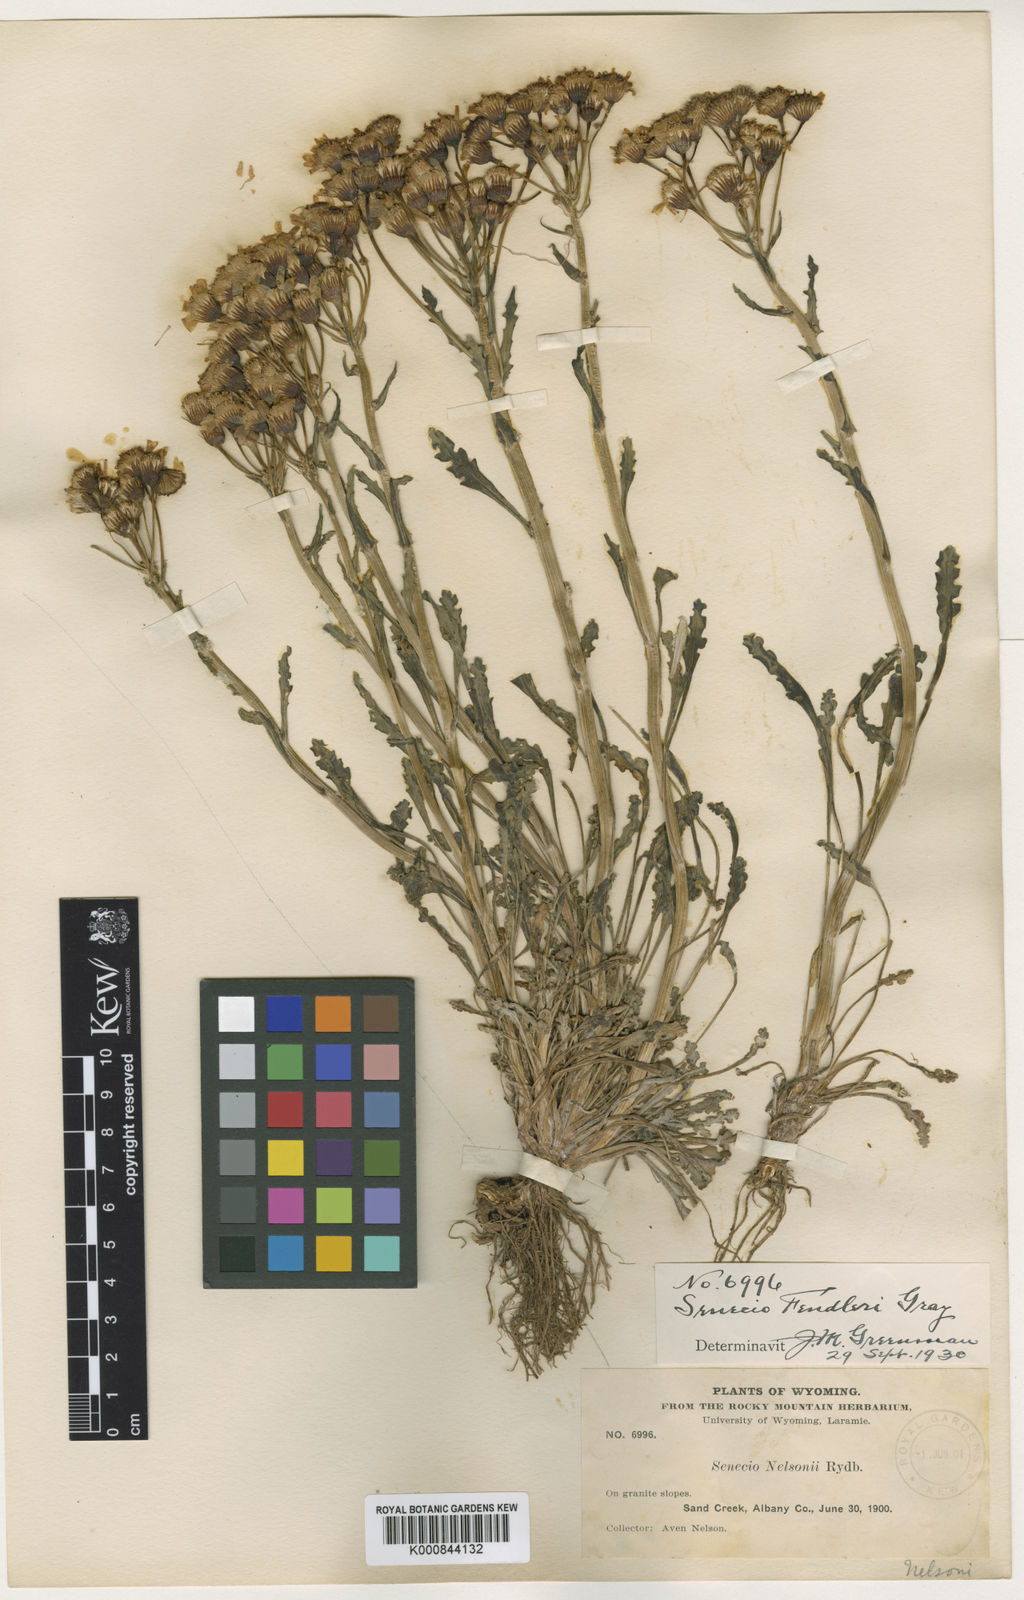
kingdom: Plantae
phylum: Tracheophyta
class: Magnoliopsida
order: Asterales
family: Asteraceae
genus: Packera
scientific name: Packera
